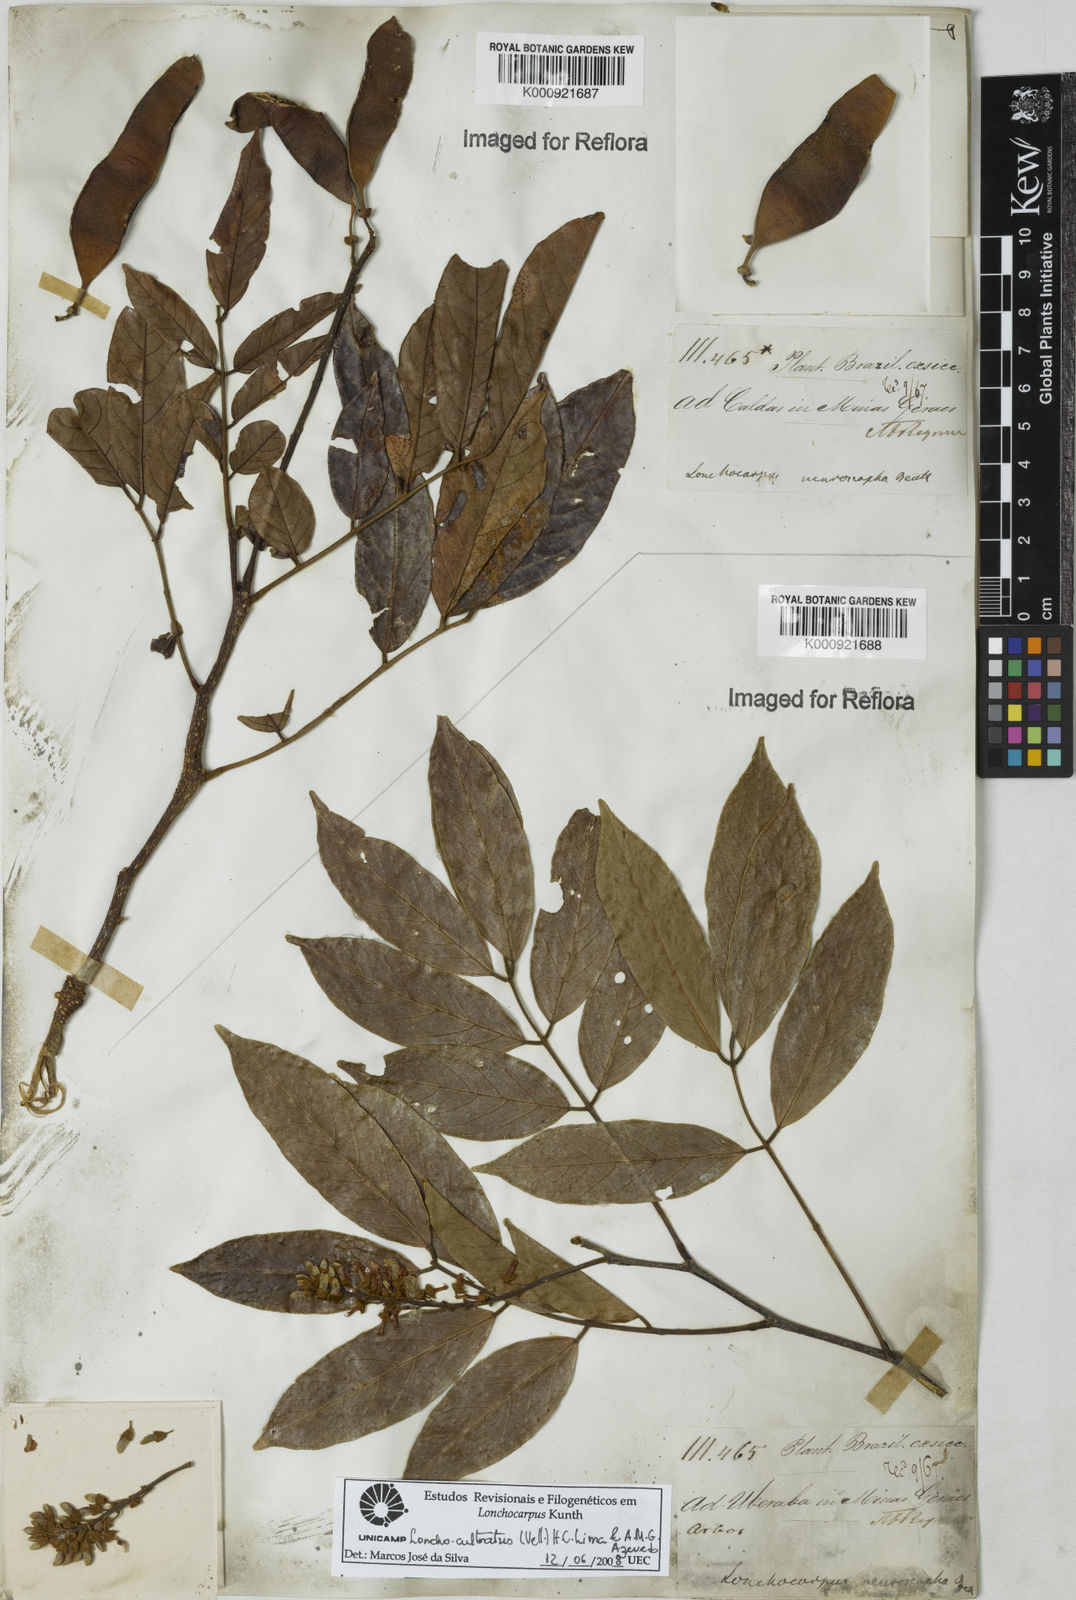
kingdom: Plantae
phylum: Tracheophyta
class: Magnoliopsida
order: Fabales
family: Fabaceae
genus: Lonchocarpus
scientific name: Lonchocarpus cultratus
